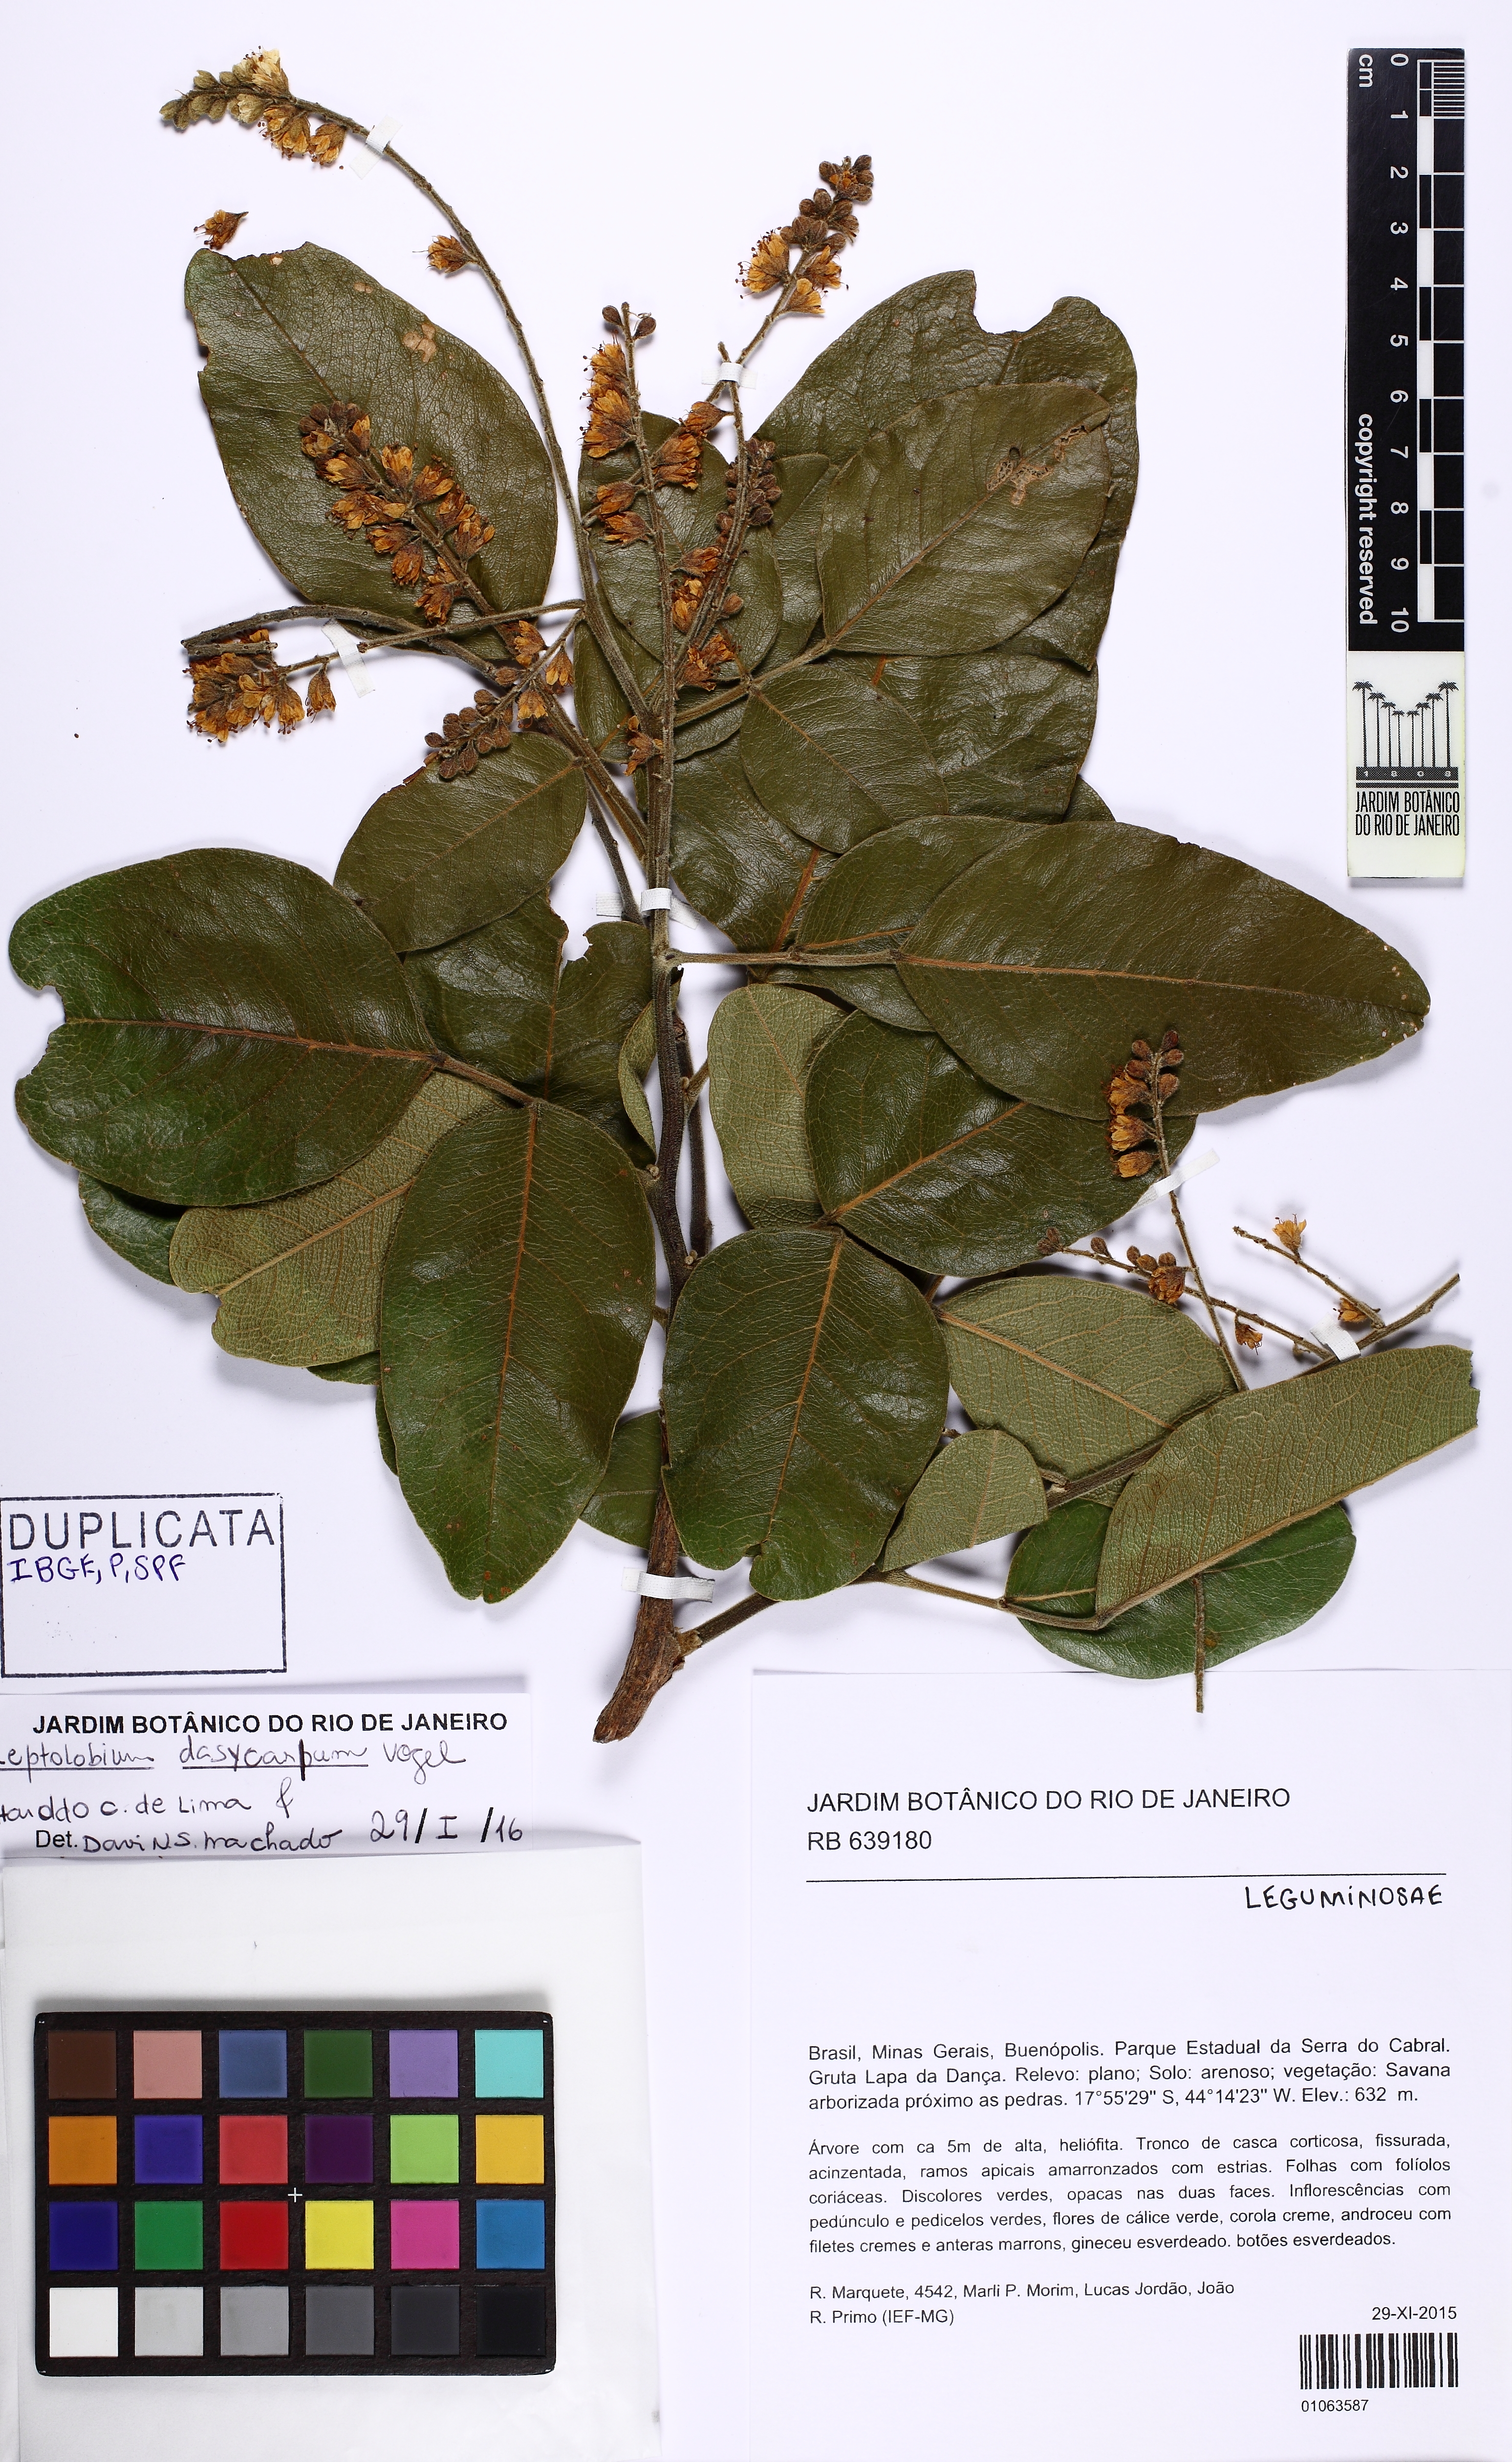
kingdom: Plantae
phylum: Tracheophyta
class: Magnoliopsida
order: Fabales
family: Fabaceae
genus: Leptolobium
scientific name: Leptolobium dasycarpum
